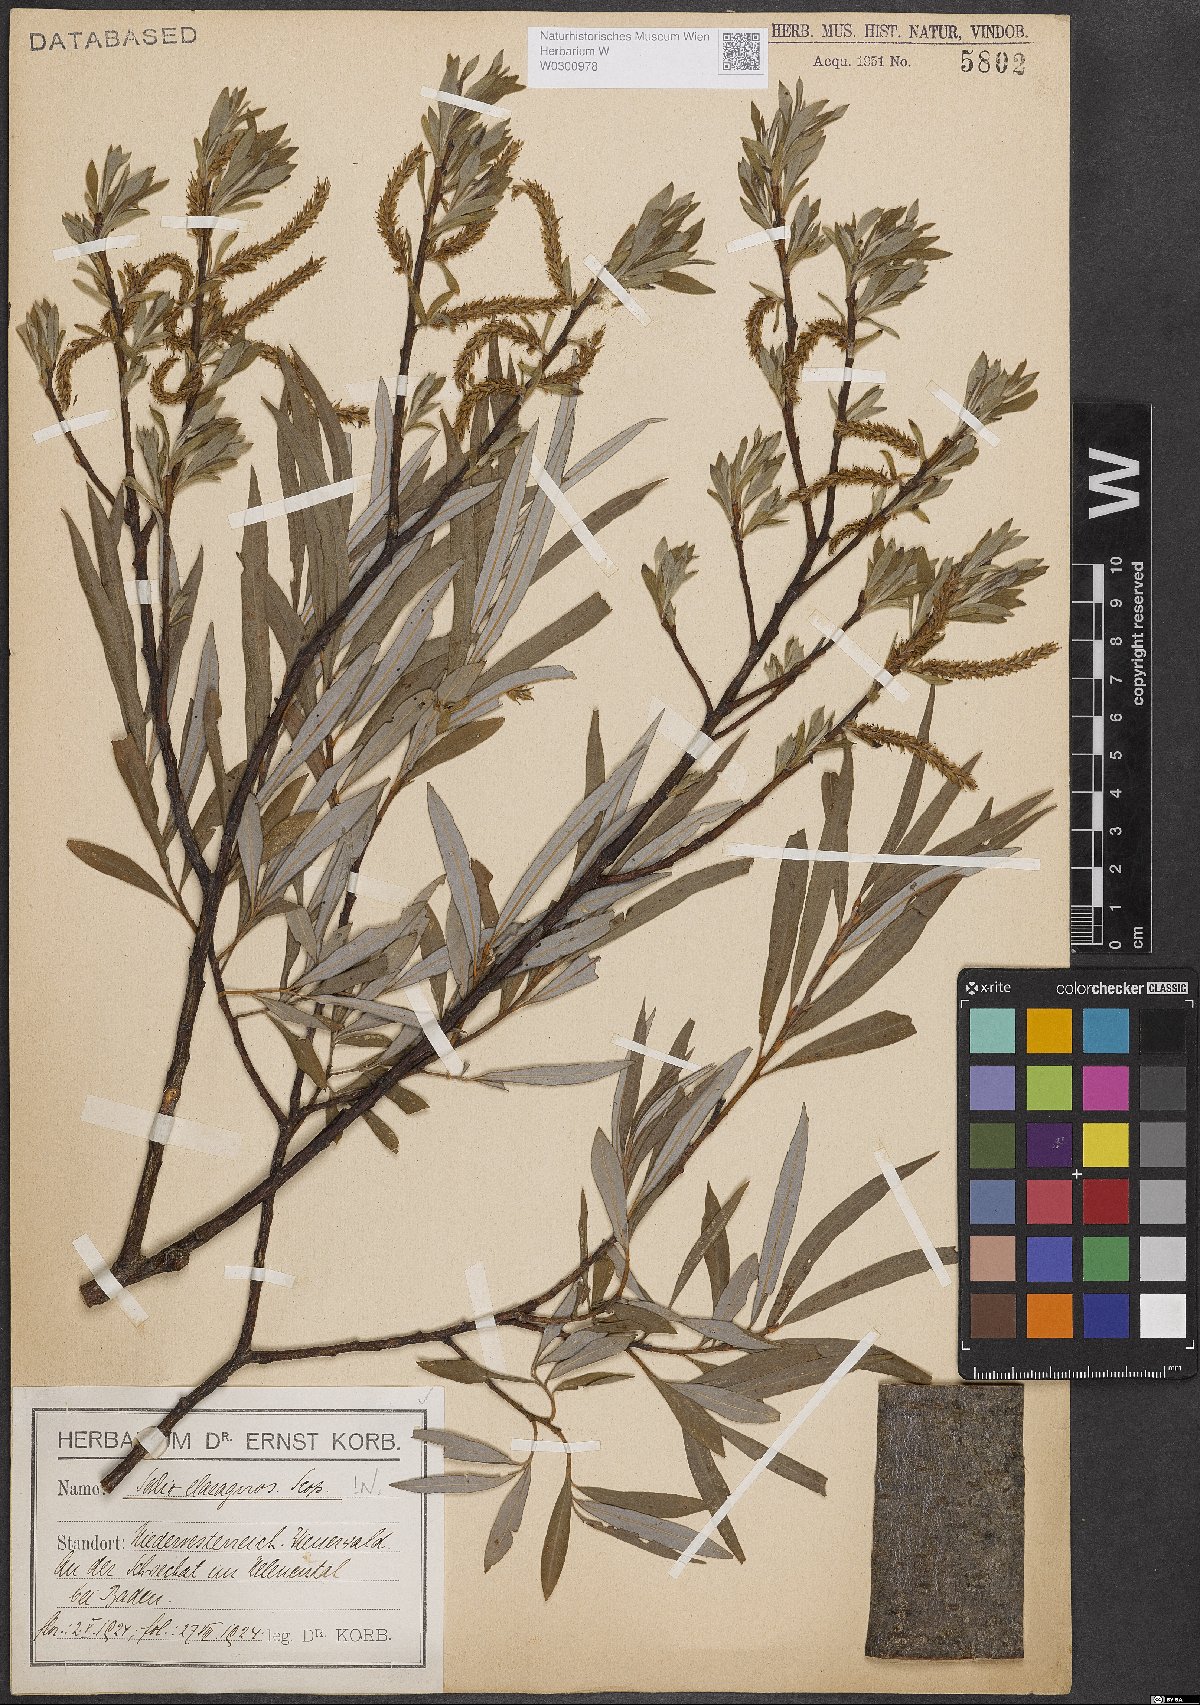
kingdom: Plantae
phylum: Tracheophyta
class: Magnoliopsida
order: Malpighiales
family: Salicaceae
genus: Salix
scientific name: Salix eleagnos
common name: Elaeagnus willow
